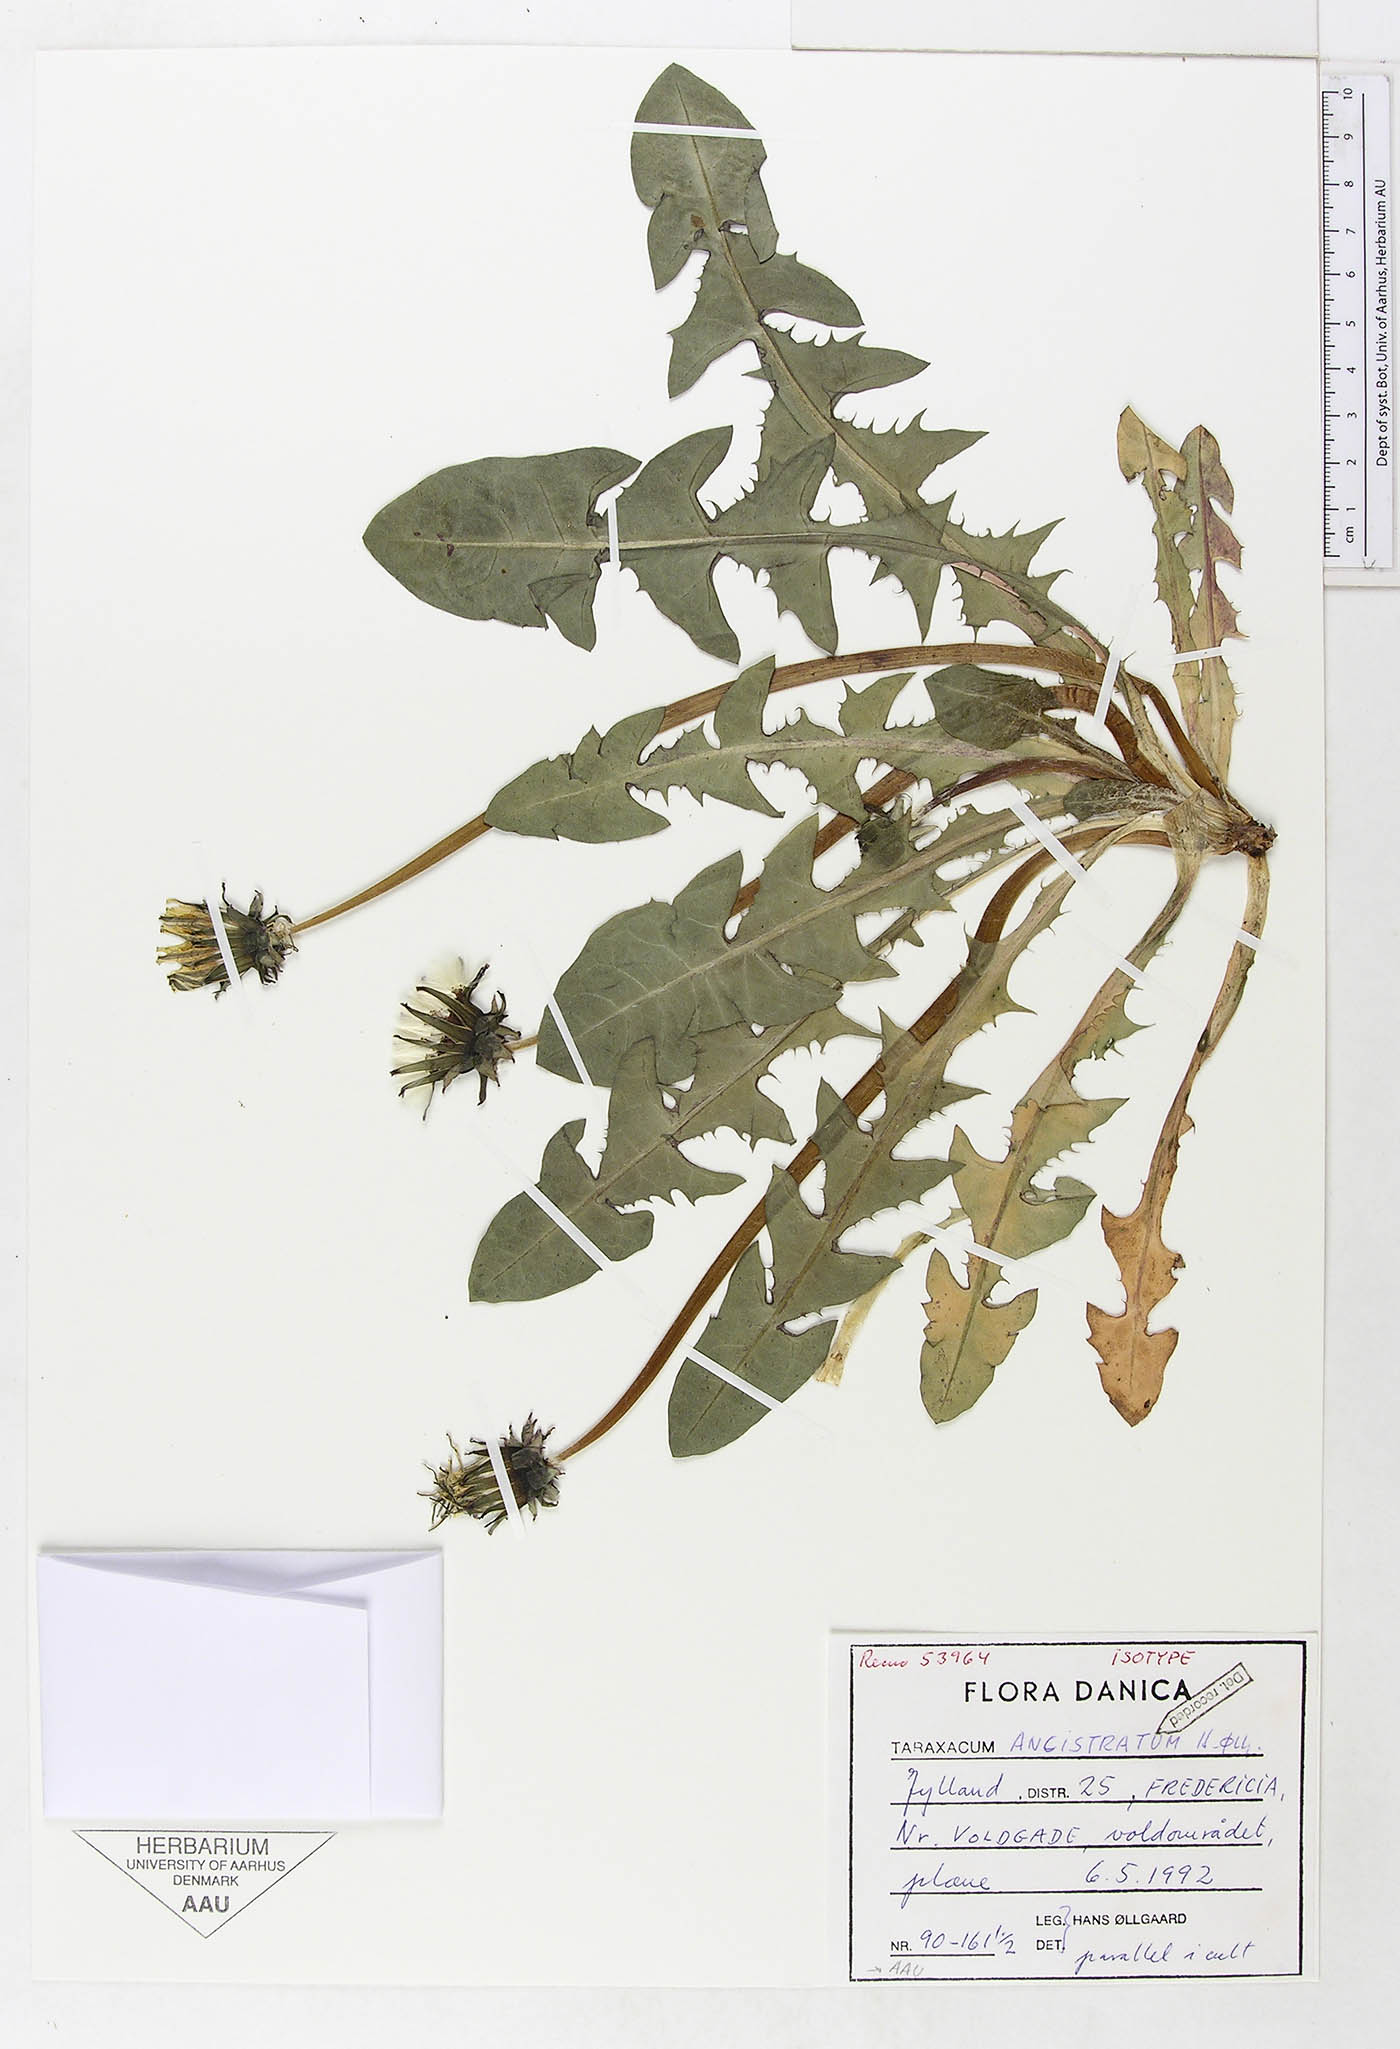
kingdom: Plantae
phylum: Tracheophyta
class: Magnoliopsida
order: Asterales
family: Asteraceae
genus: Taraxacum
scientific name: Taraxacum ancistratum
